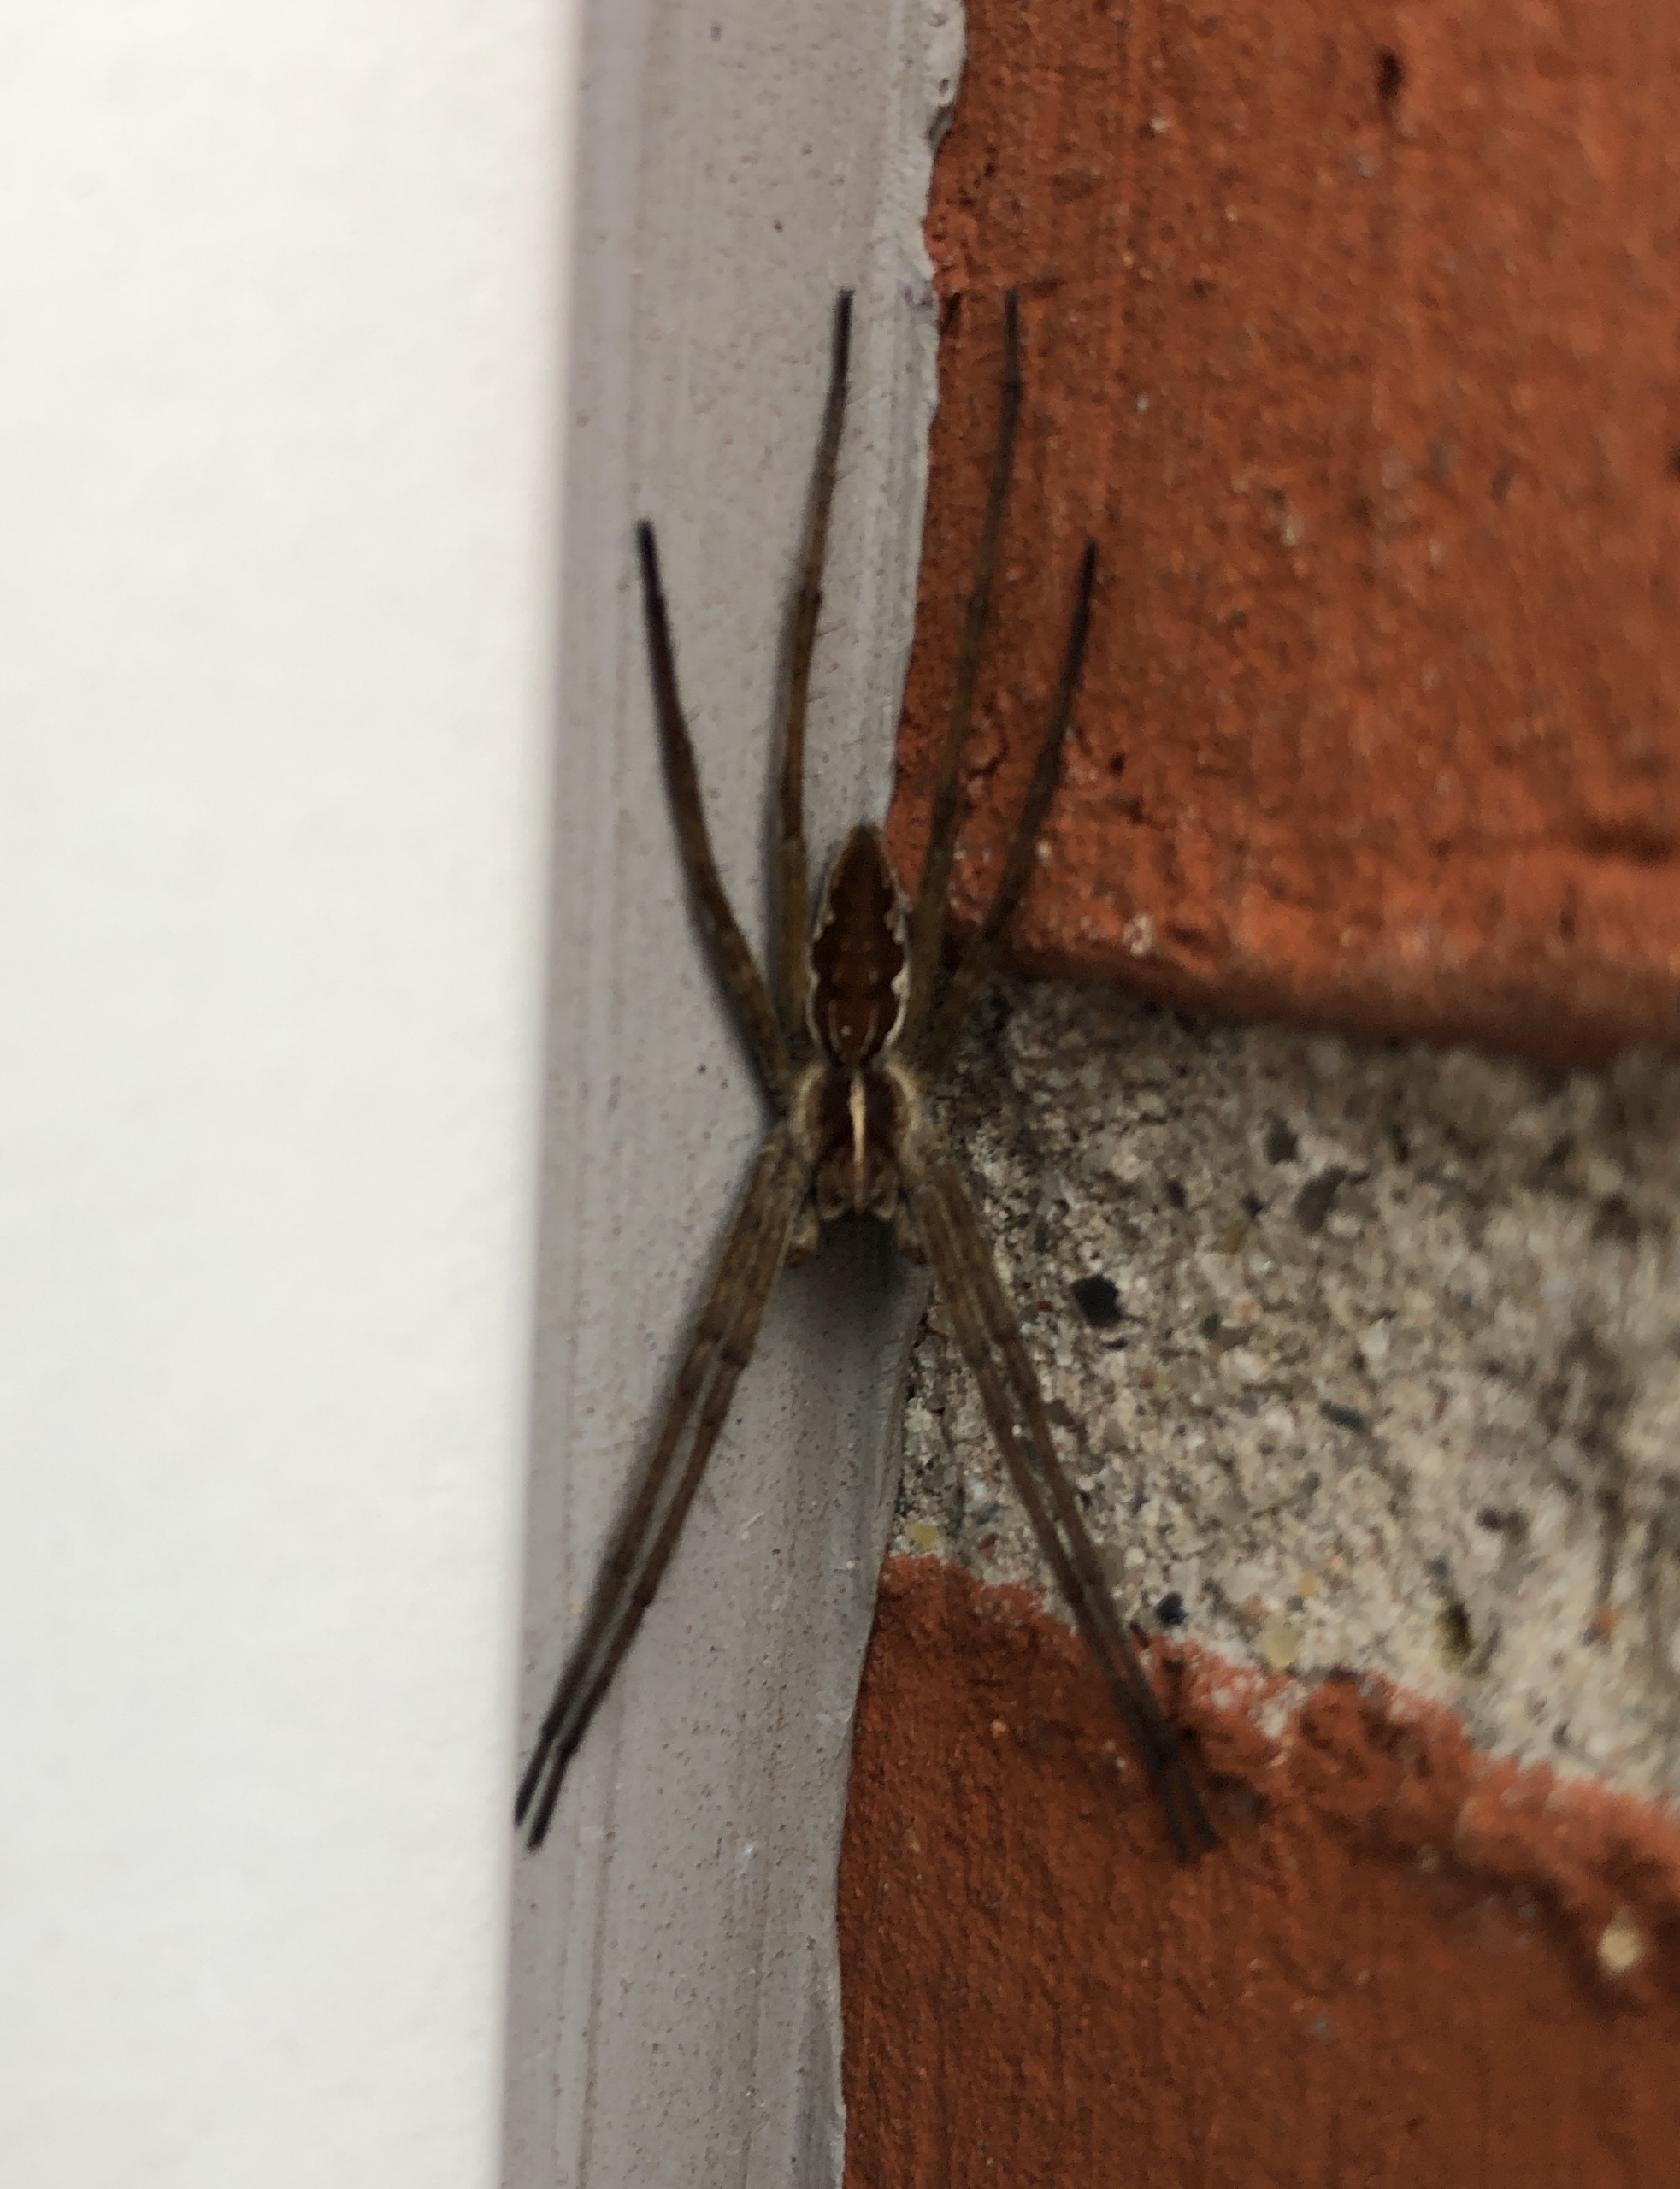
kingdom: Animalia
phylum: Arthropoda
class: Arachnida
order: Araneae
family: Pisauridae
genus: Pisaura
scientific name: Pisaura mirabilis
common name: Almindelig rovedderkop
